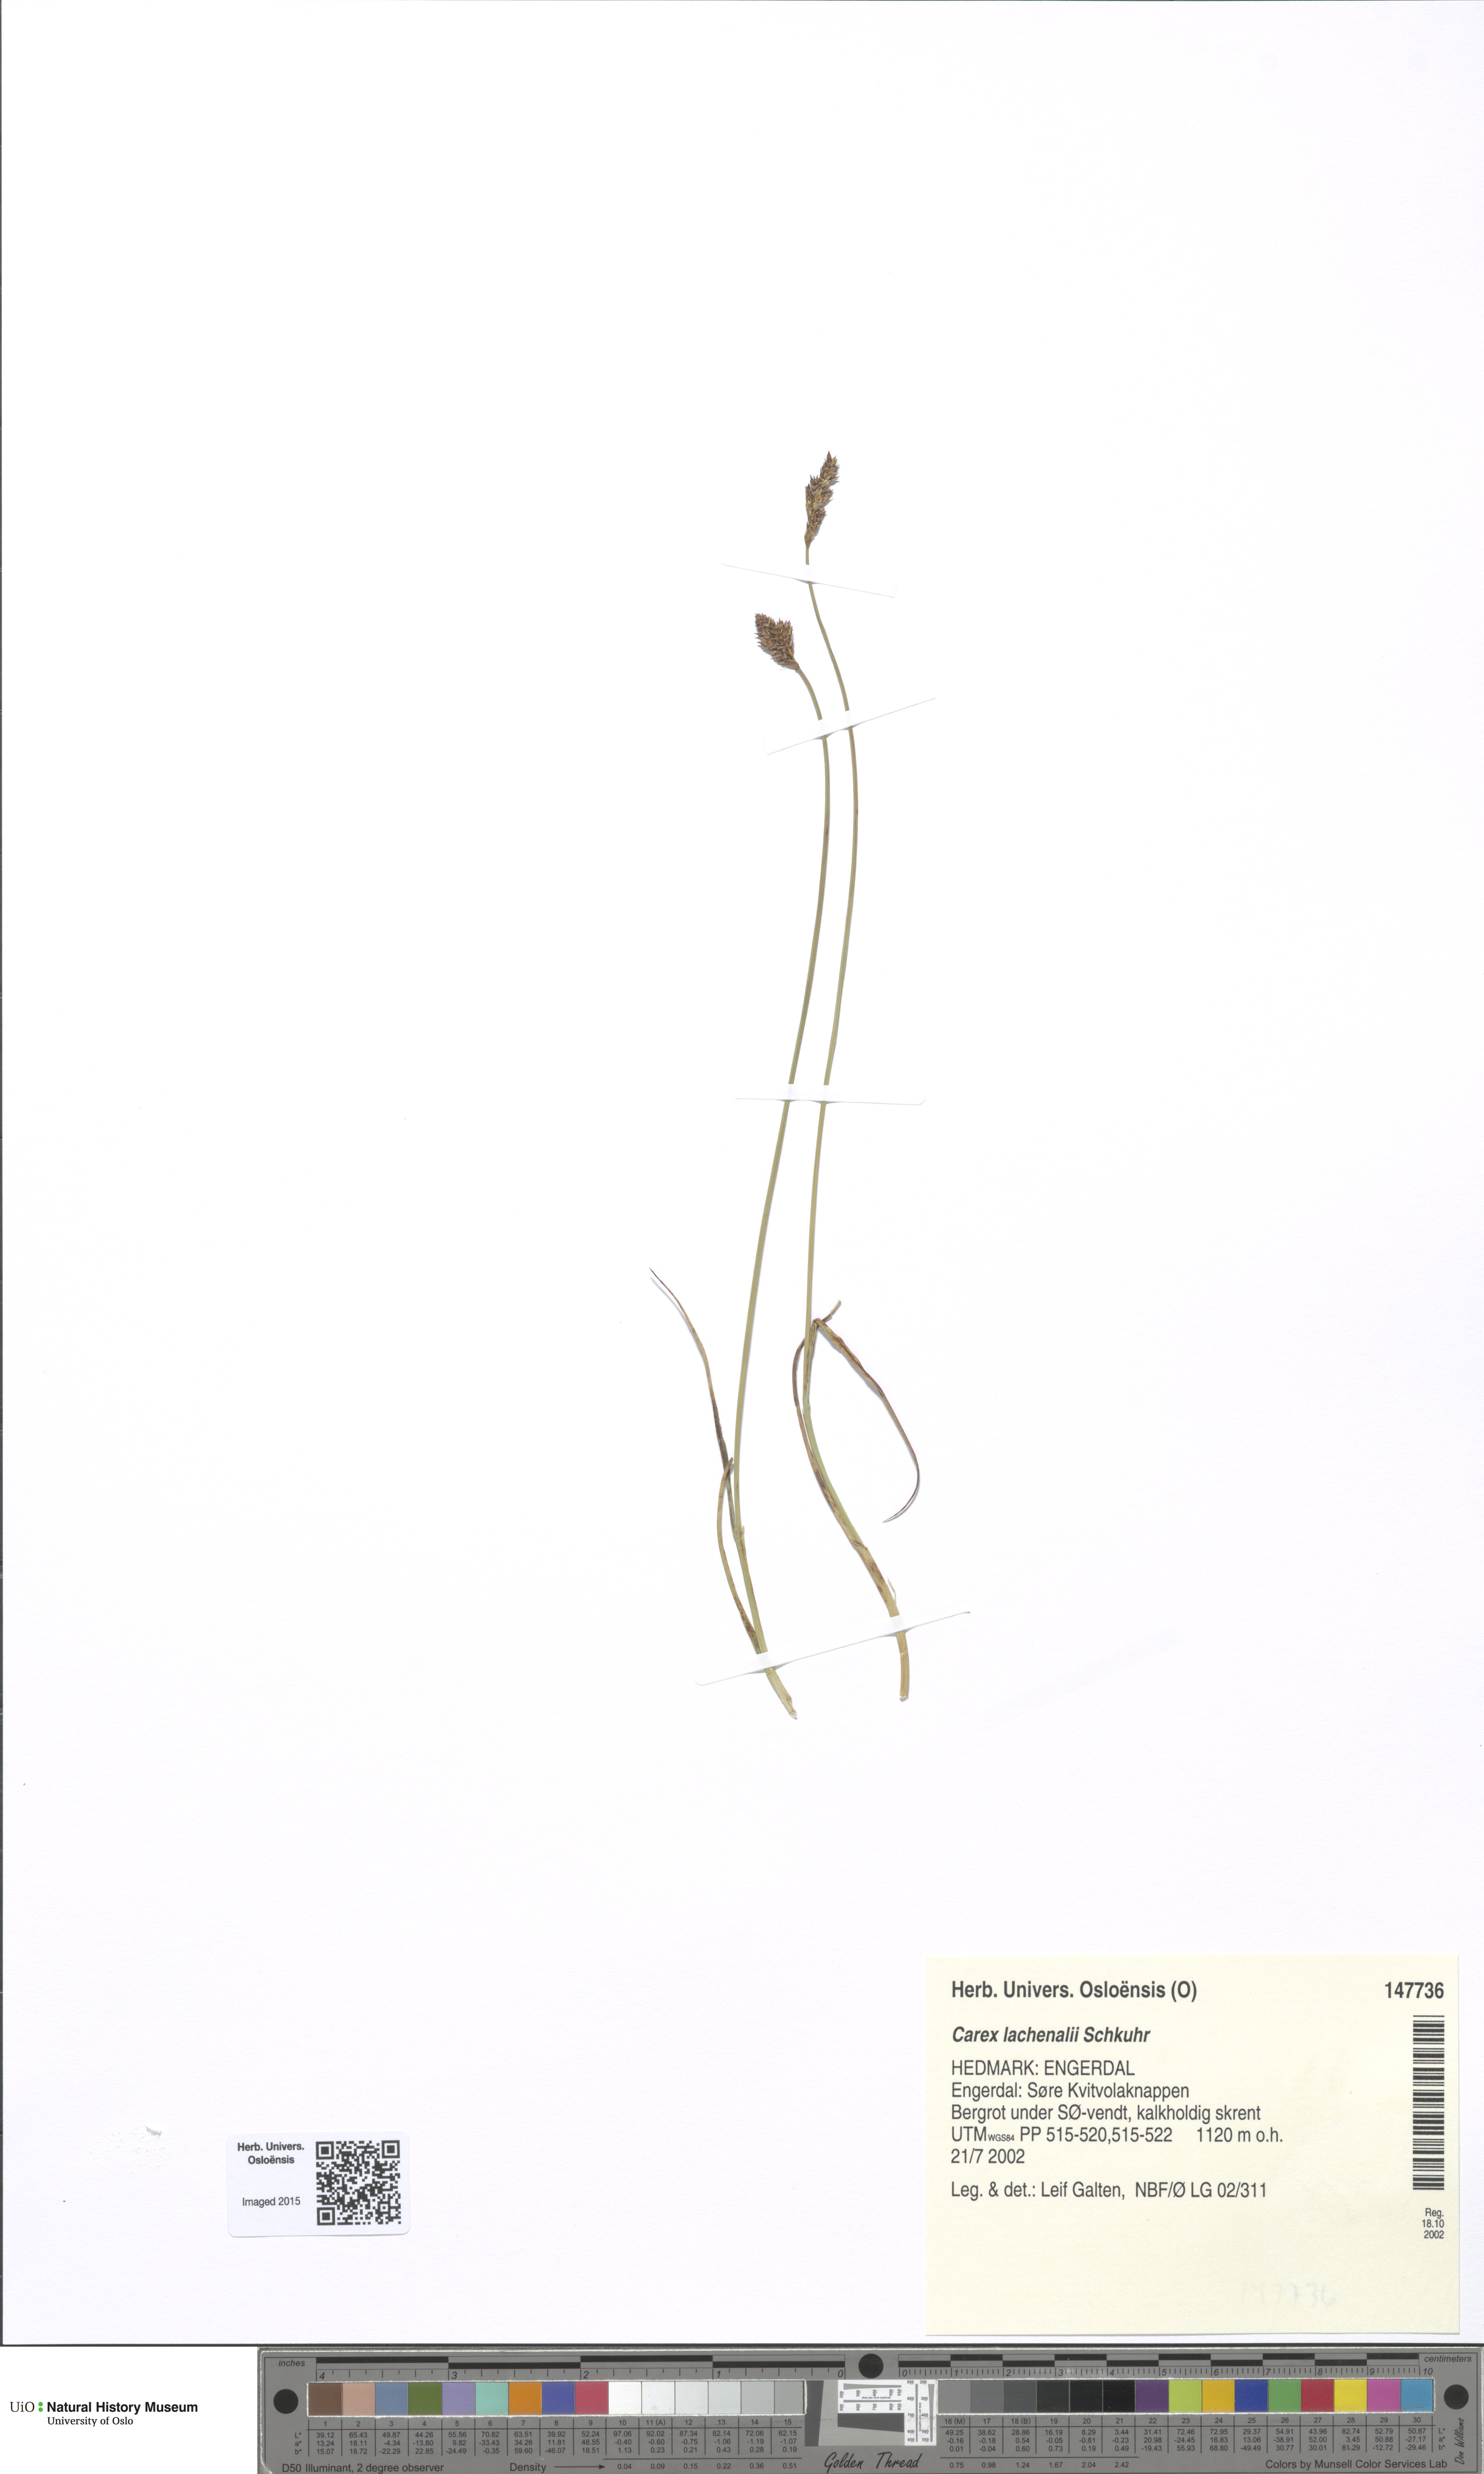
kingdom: Plantae
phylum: Tracheophyta
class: Liliopsida
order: Poales
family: Cyperaceae
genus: Carex
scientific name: Carex lachenalii
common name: Hare's-foot sedge
